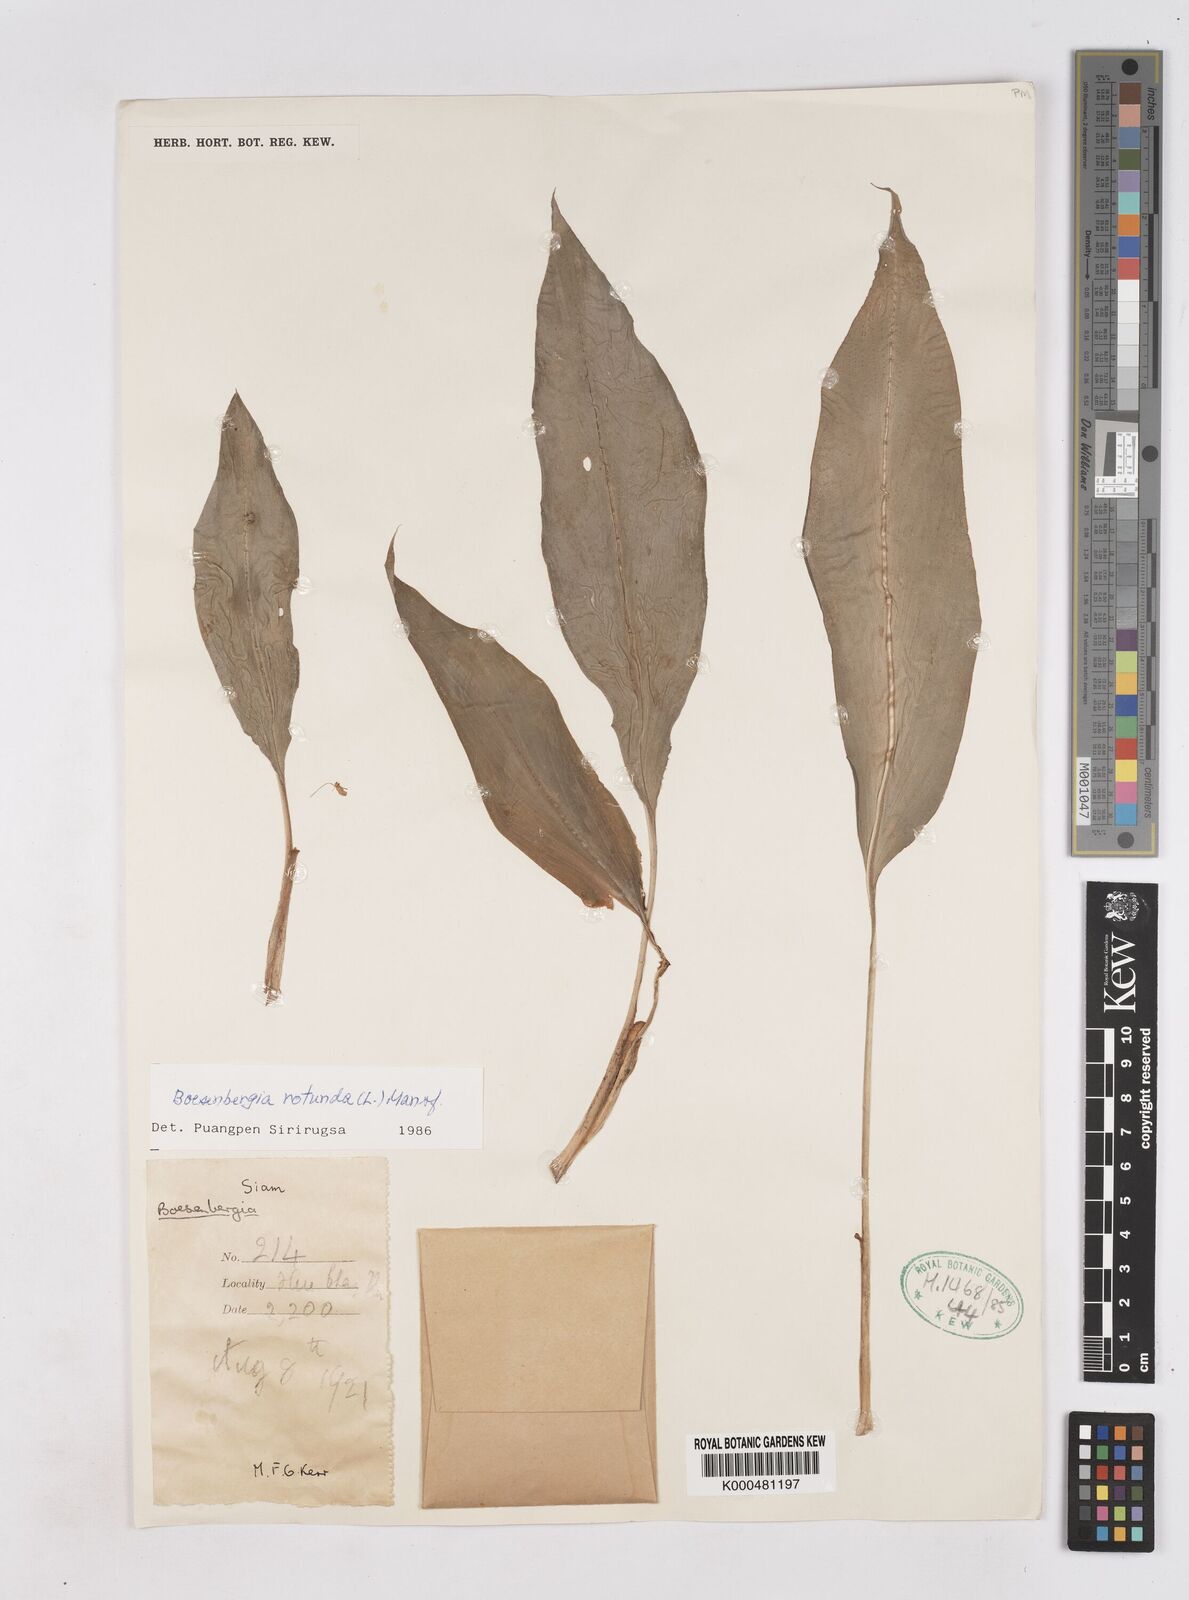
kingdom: Plantae
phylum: Tracheophyta
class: Liliopsida
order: Zingiberales
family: Zingiberaceae
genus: Boesenbergia
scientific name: Boesenbergia rotunda
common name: Chinese ginger
